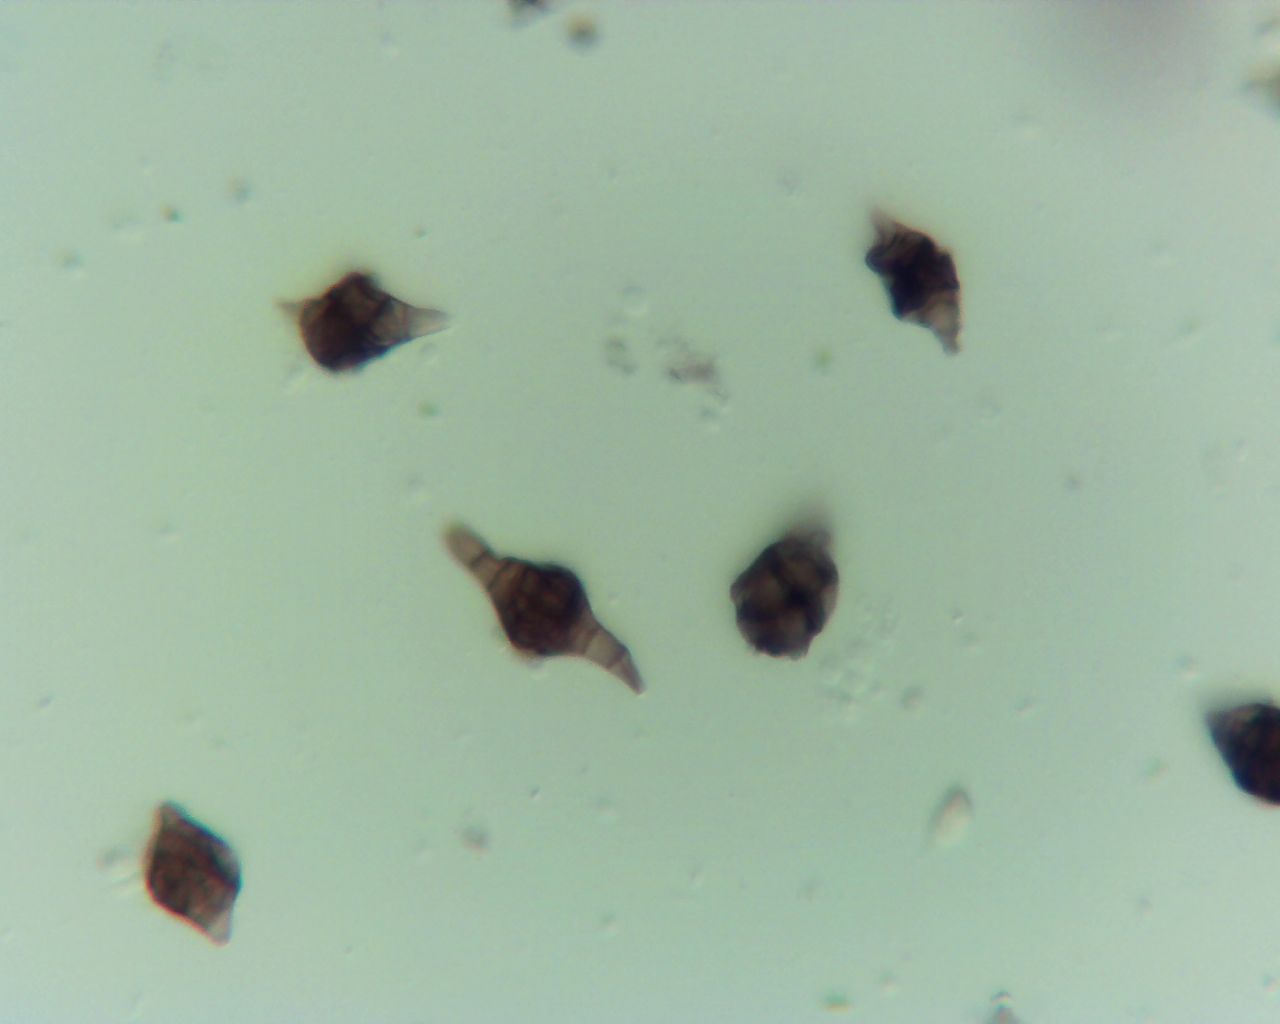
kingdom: Fungi
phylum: Ascomycota
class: Dothideomycetes
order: Pleosporales
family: Melanommataceae
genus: Phragmotrichum
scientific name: Phragmotrichum chailletii
